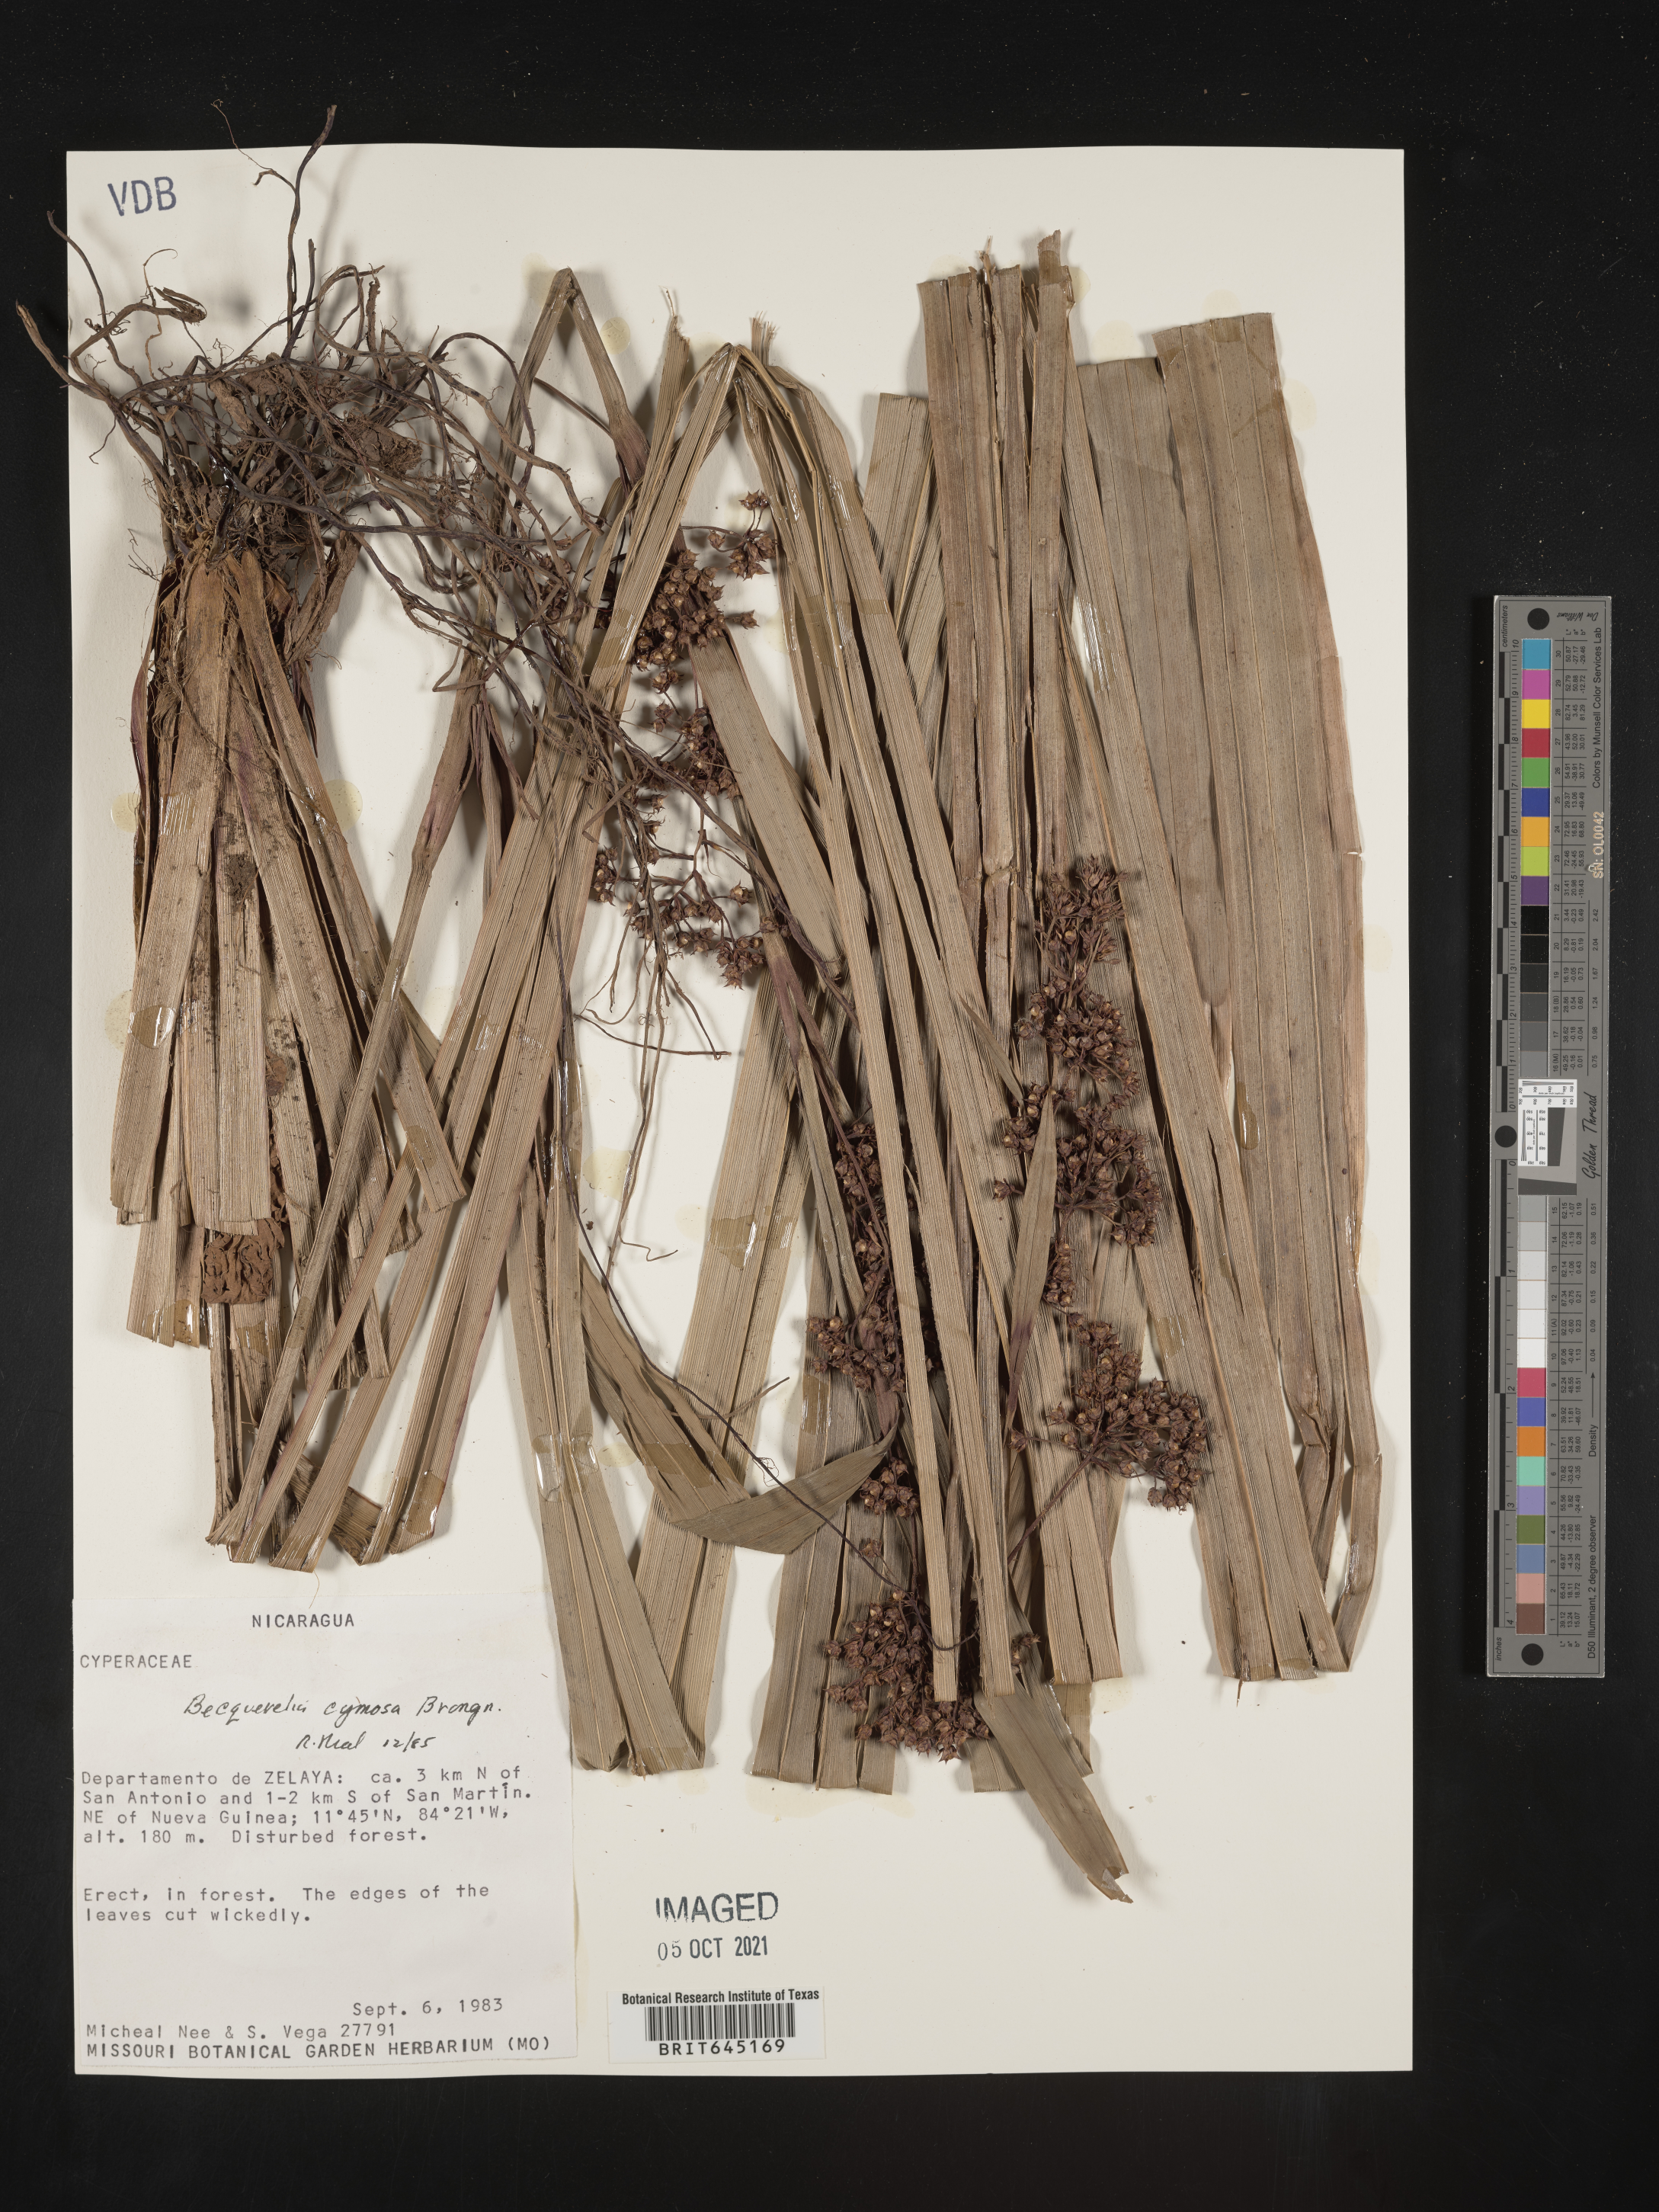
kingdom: Plantae
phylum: Tracheophyta
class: Liliopsida
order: Poales
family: Cyperaceae
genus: Becquerelia
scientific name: Becquerelia merkeliana
